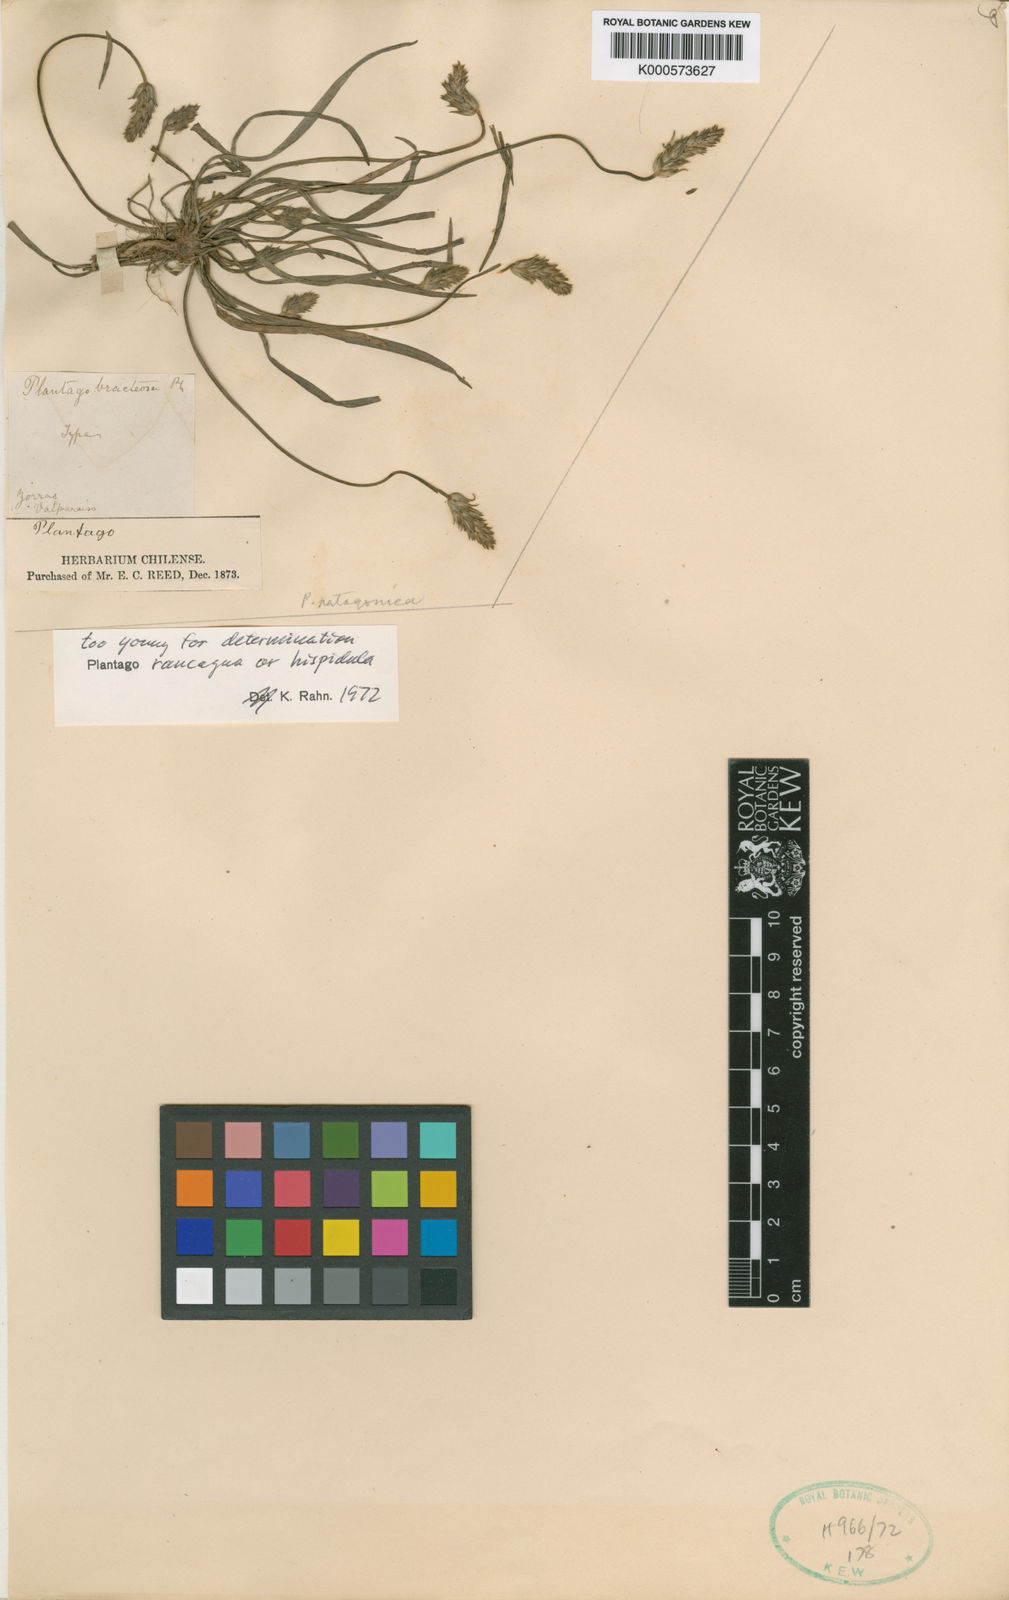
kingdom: Plantae
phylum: Tracheophyta
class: Magnoliopsida
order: Lamiales
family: Plantaginaceae
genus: Plantago
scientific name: Plantago hispidula
